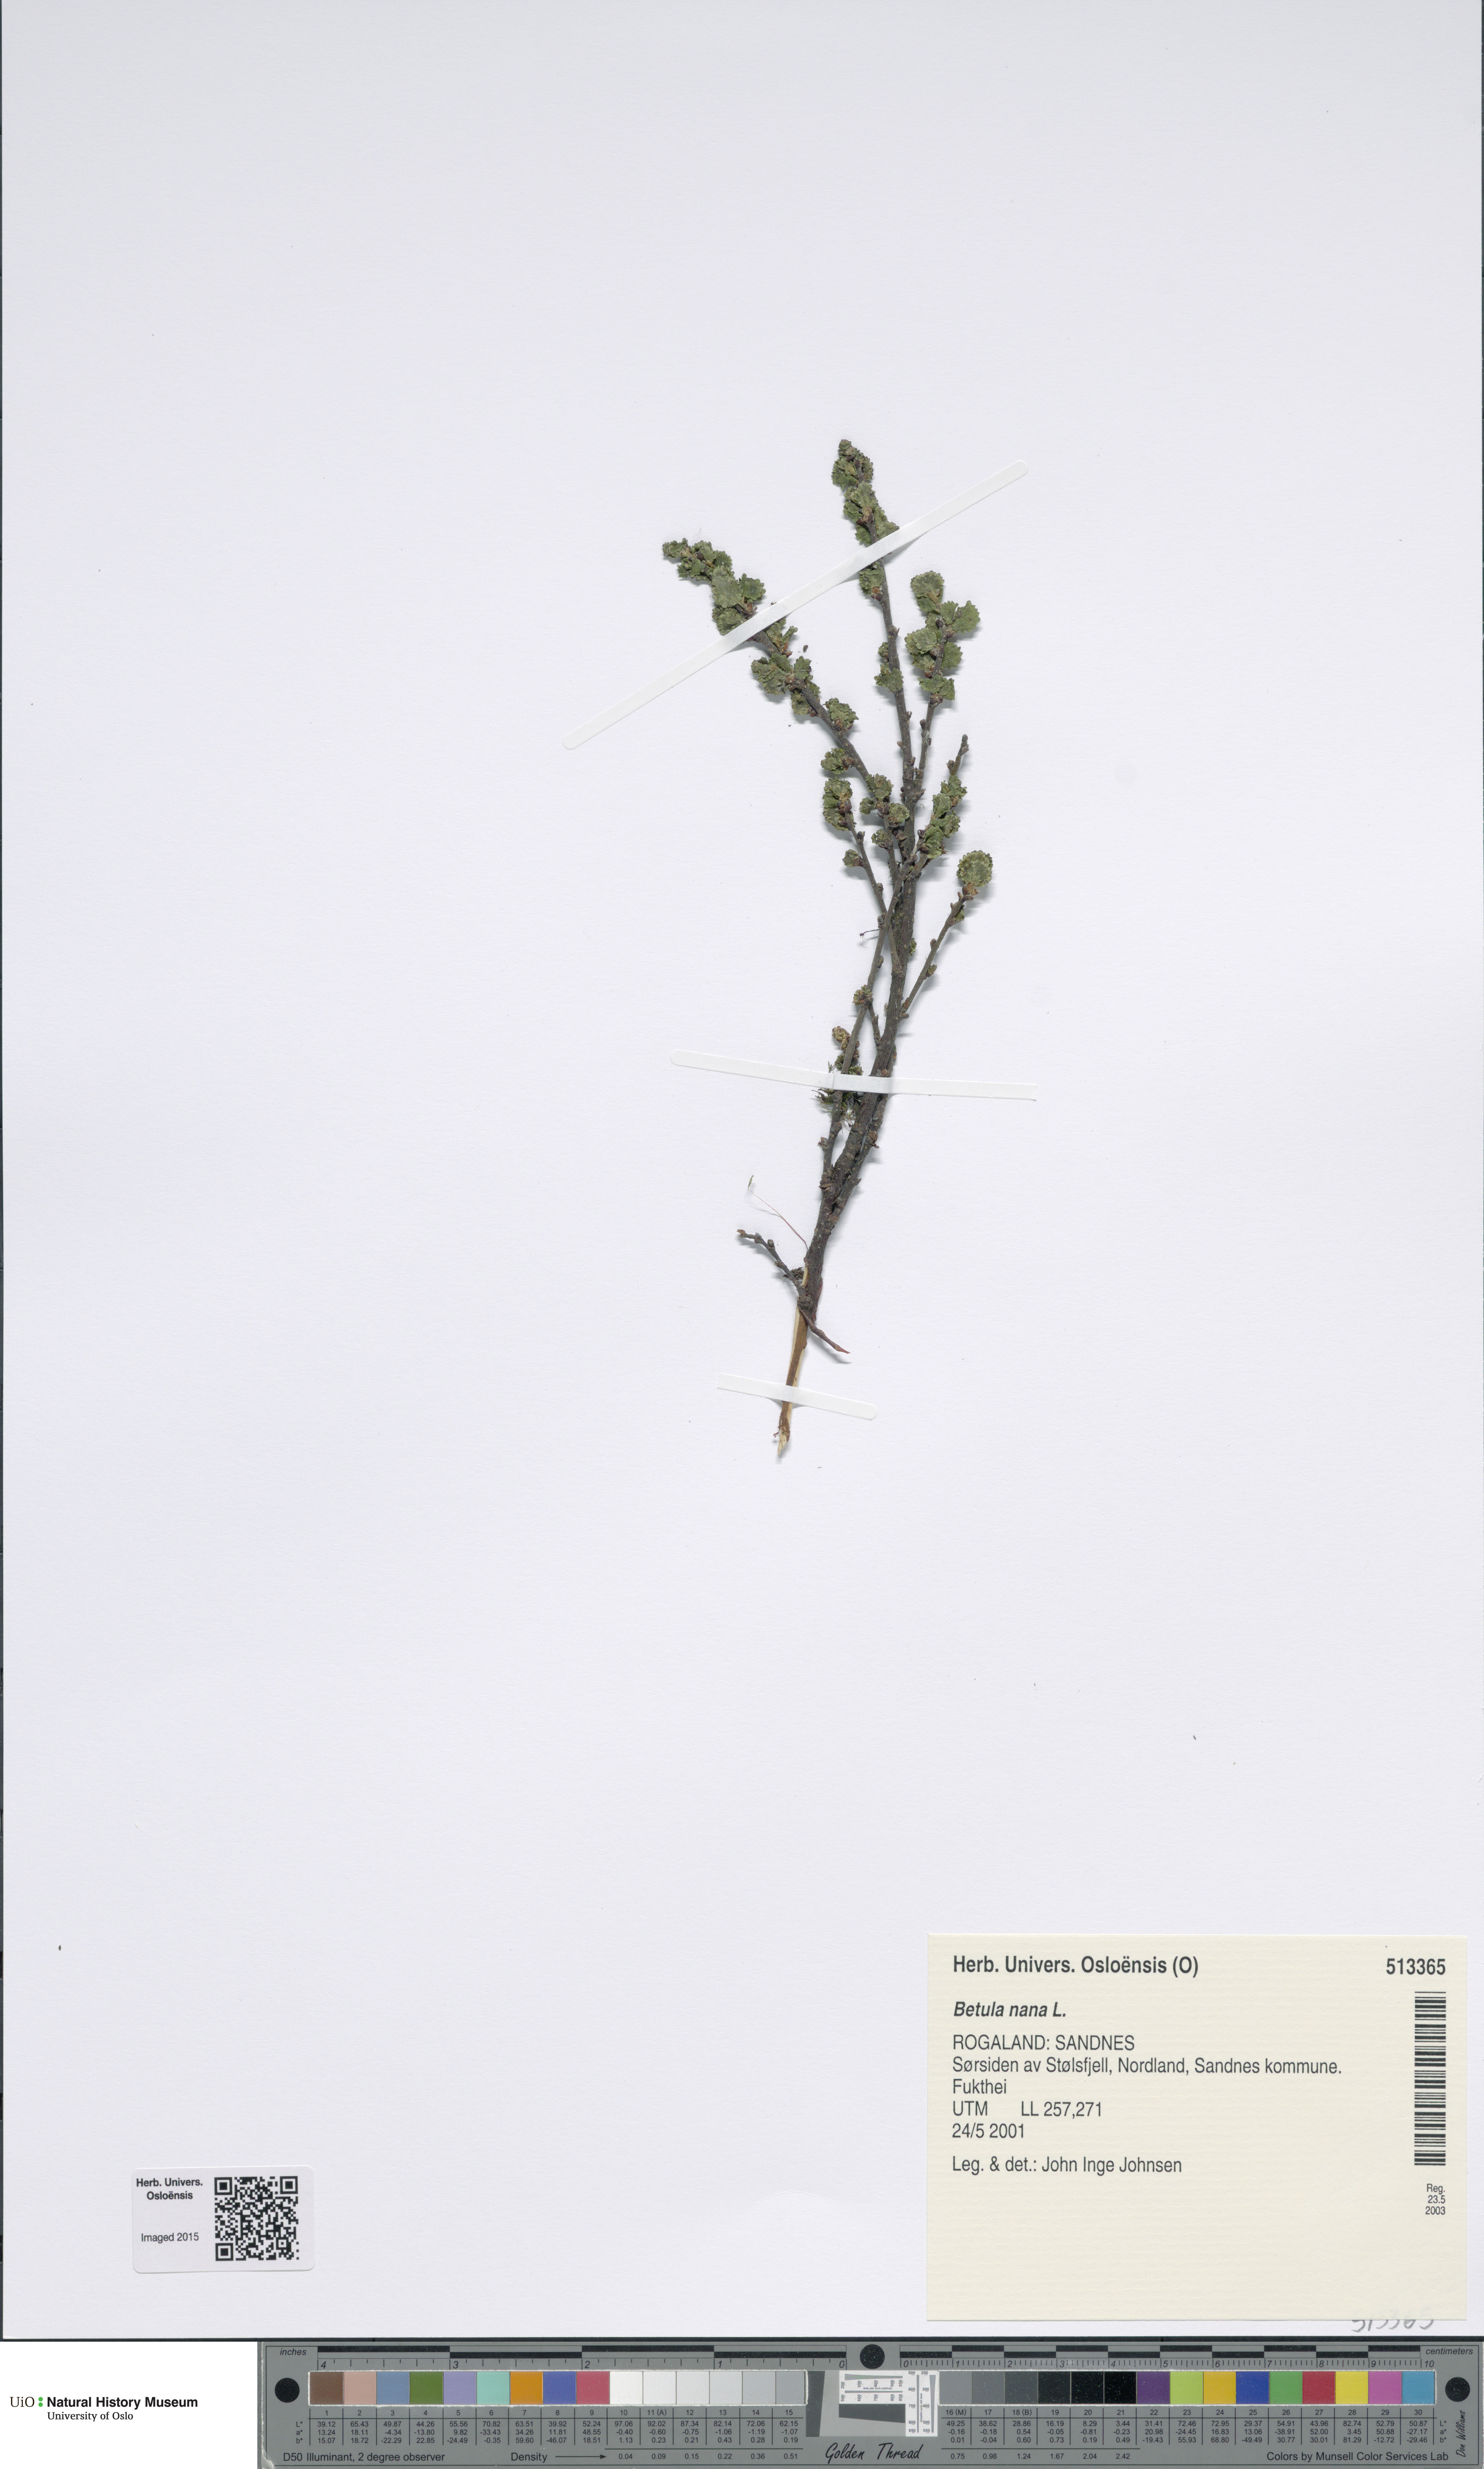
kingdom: Plantae
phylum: Tracheophyta
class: Magnoliopsida
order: Fagales
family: Betulaceae
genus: Betula
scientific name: Betula nana
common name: Arctic dwarf birch
